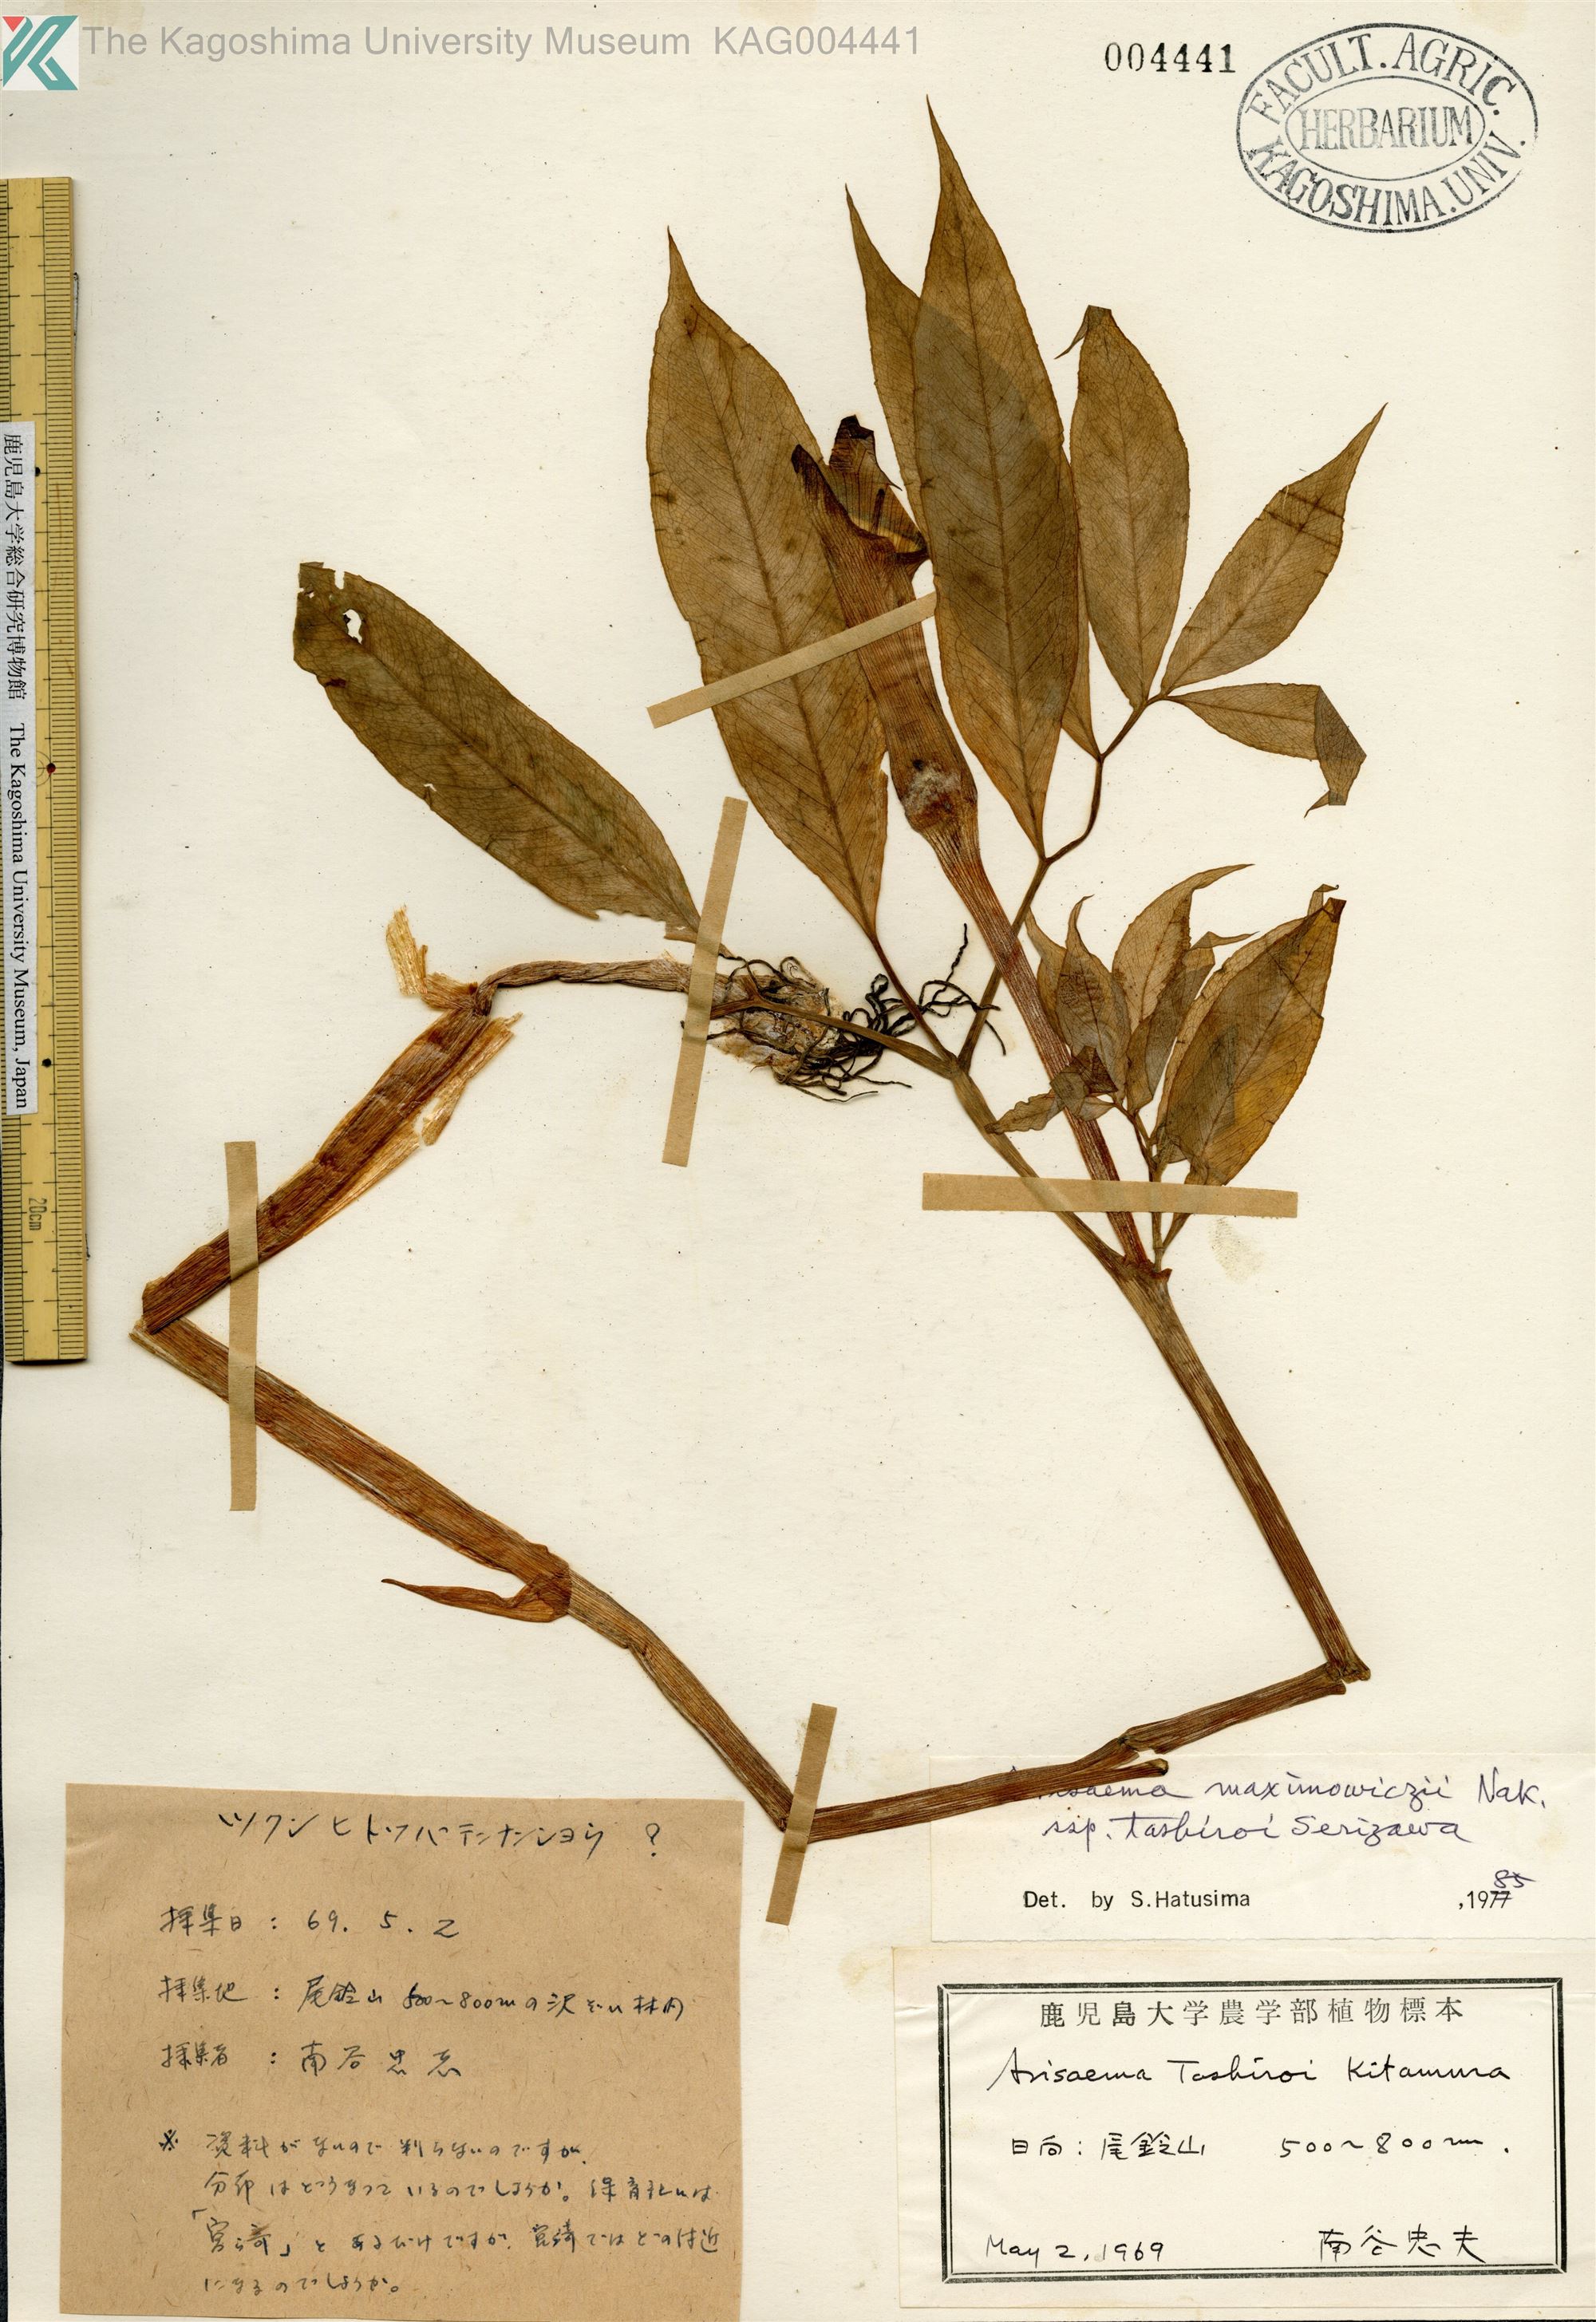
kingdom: Plantae
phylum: Tracheophyta
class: Liliopsida
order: Alismatales
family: Araceae
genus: Arisaema
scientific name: Arisaema tashiroi
